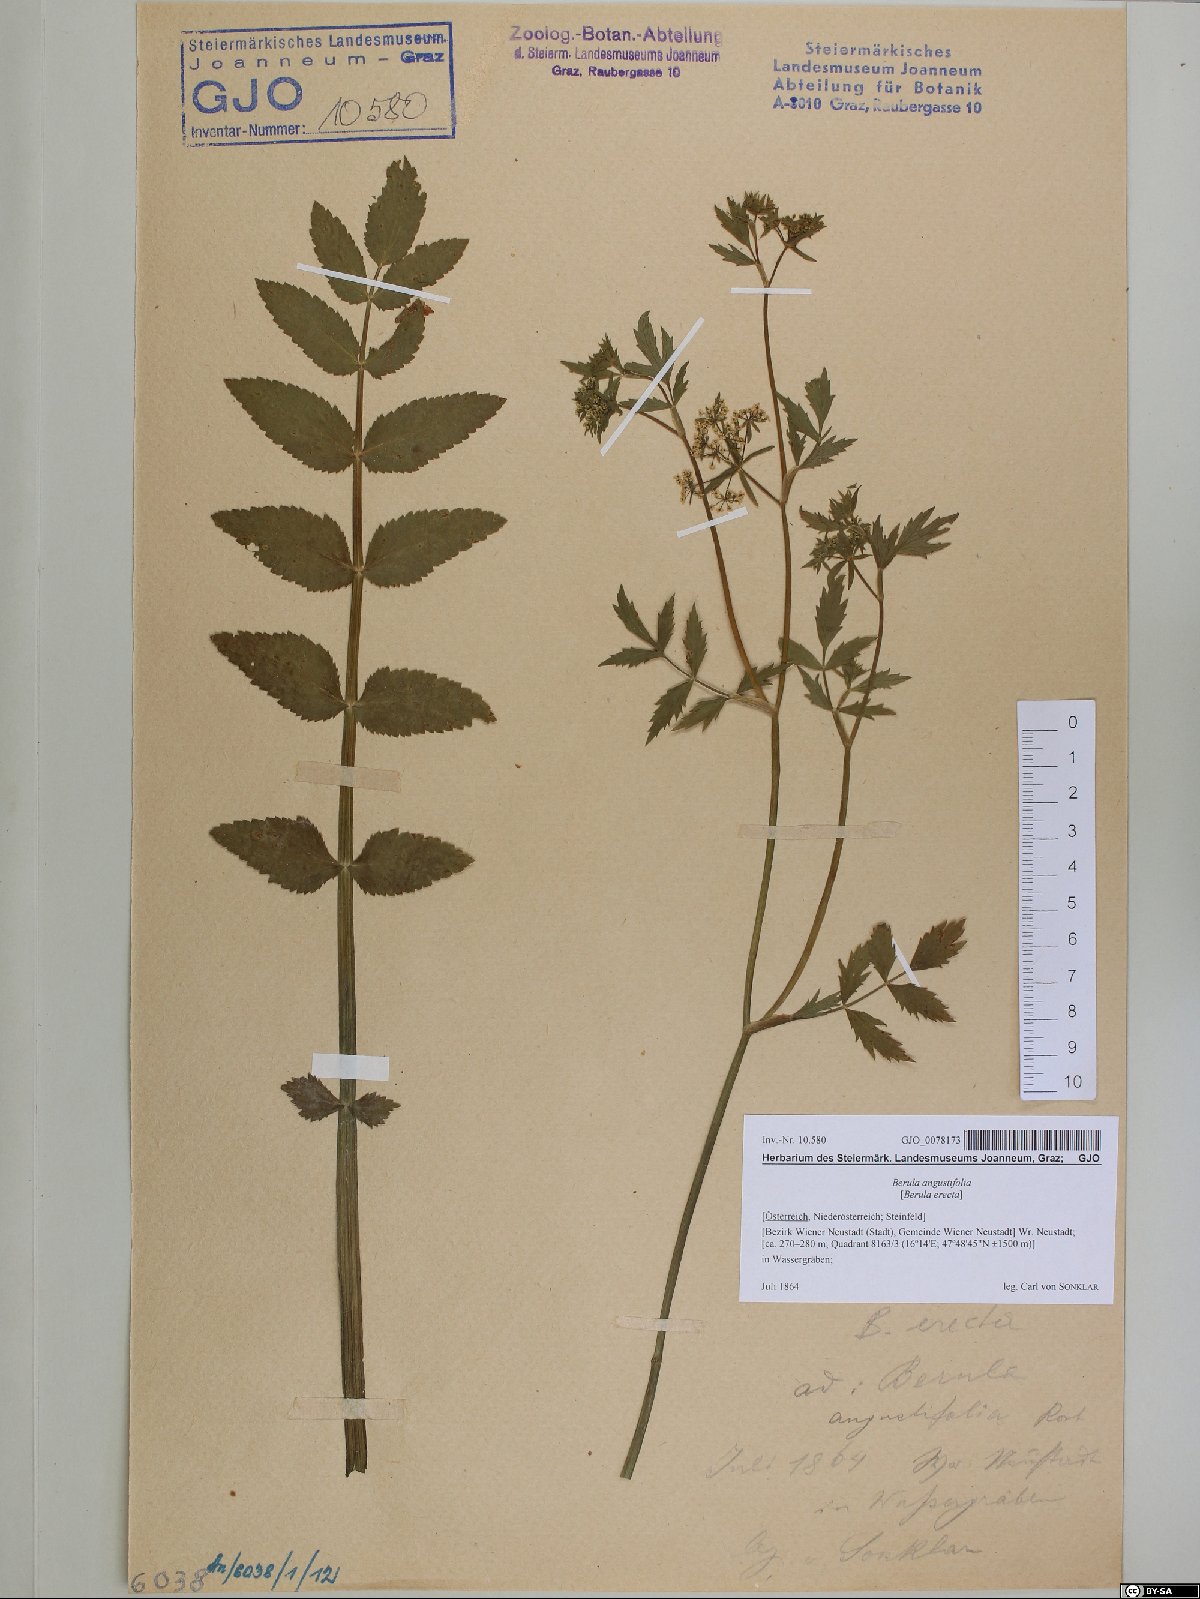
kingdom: Plantae
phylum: Tracheophyta
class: Magnoliopsida
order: Apiales
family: Apiaceae
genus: Berula
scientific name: Berula erecta
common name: Lesser water-parsnip
